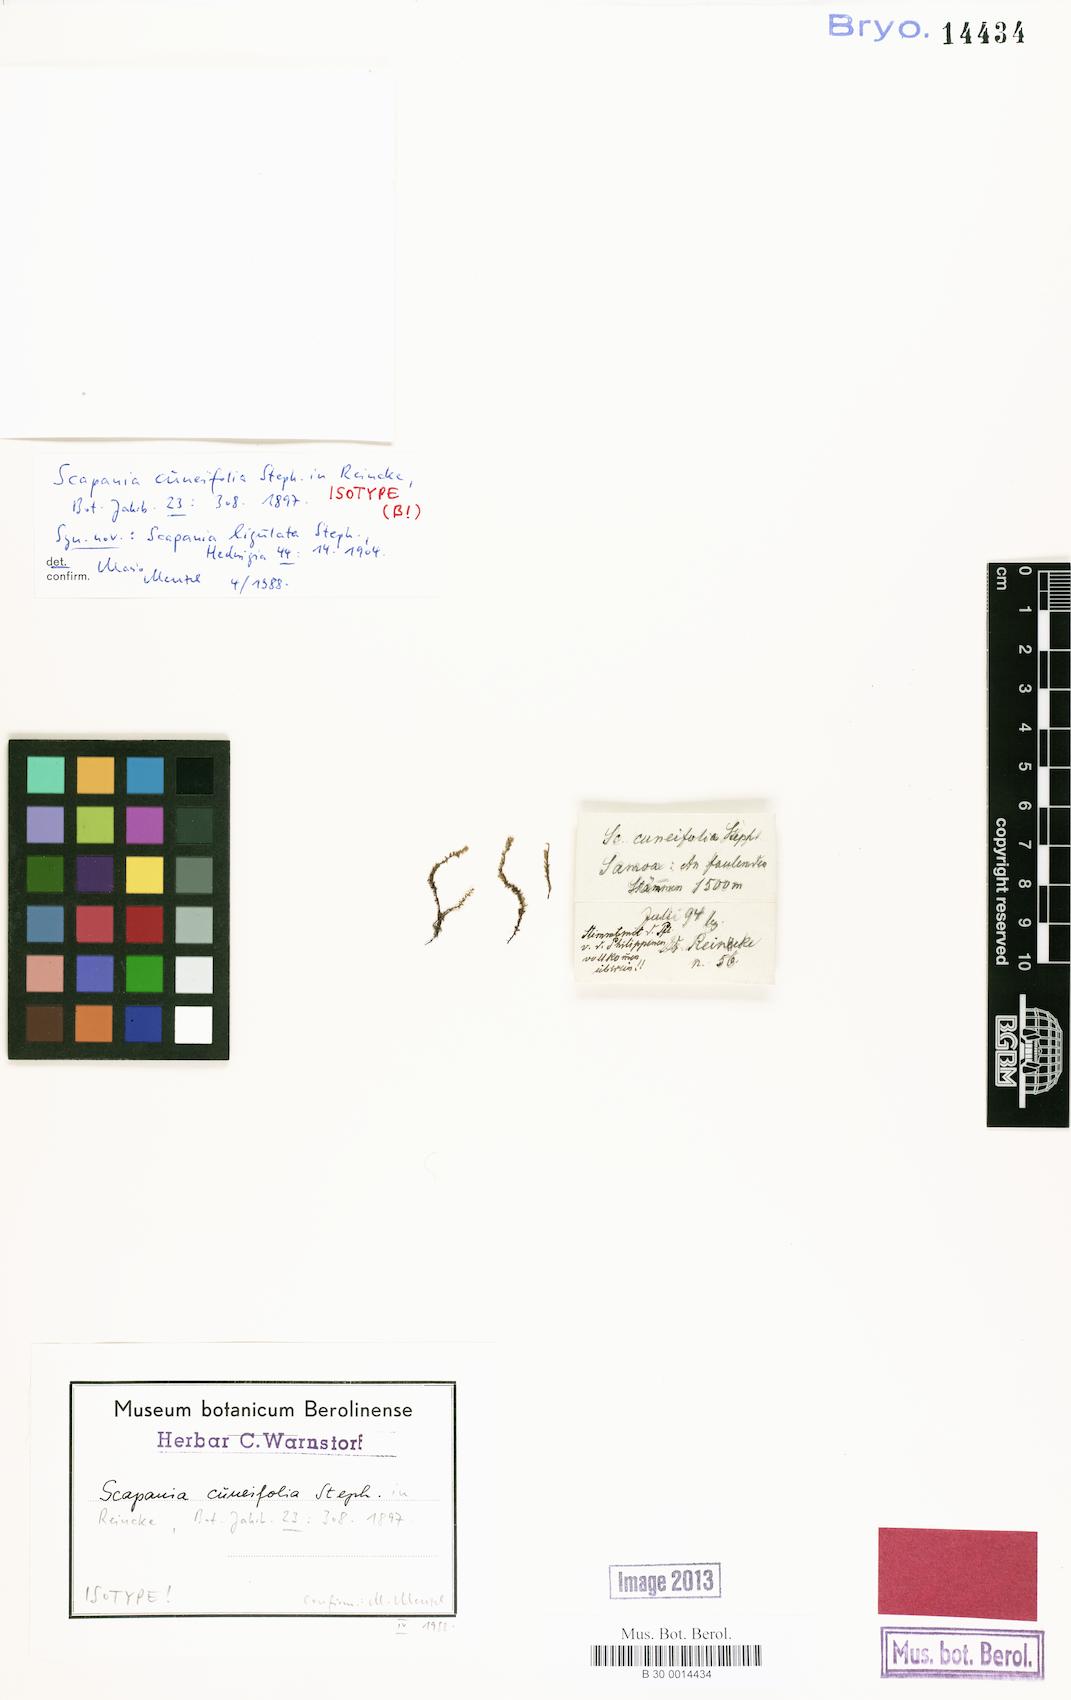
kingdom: Plantae
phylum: Marchantiophyta
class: Jungermanniopsida
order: Jungermanniales
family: Scapaniaceae
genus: Scapania
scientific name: Scapania javanica
